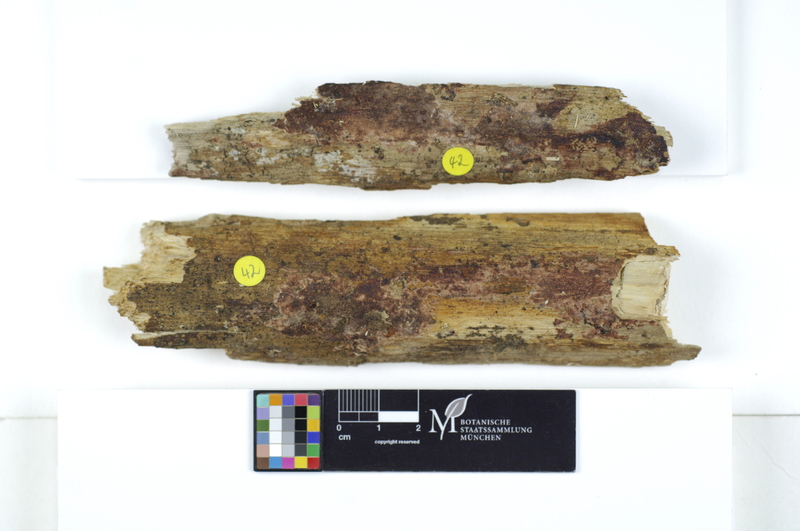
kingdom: Fungi
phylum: Basidiomycota
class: Agaricomycetes
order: Polyporales
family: Irpicaceae
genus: Ceriporia
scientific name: Ceriporia purpurea
